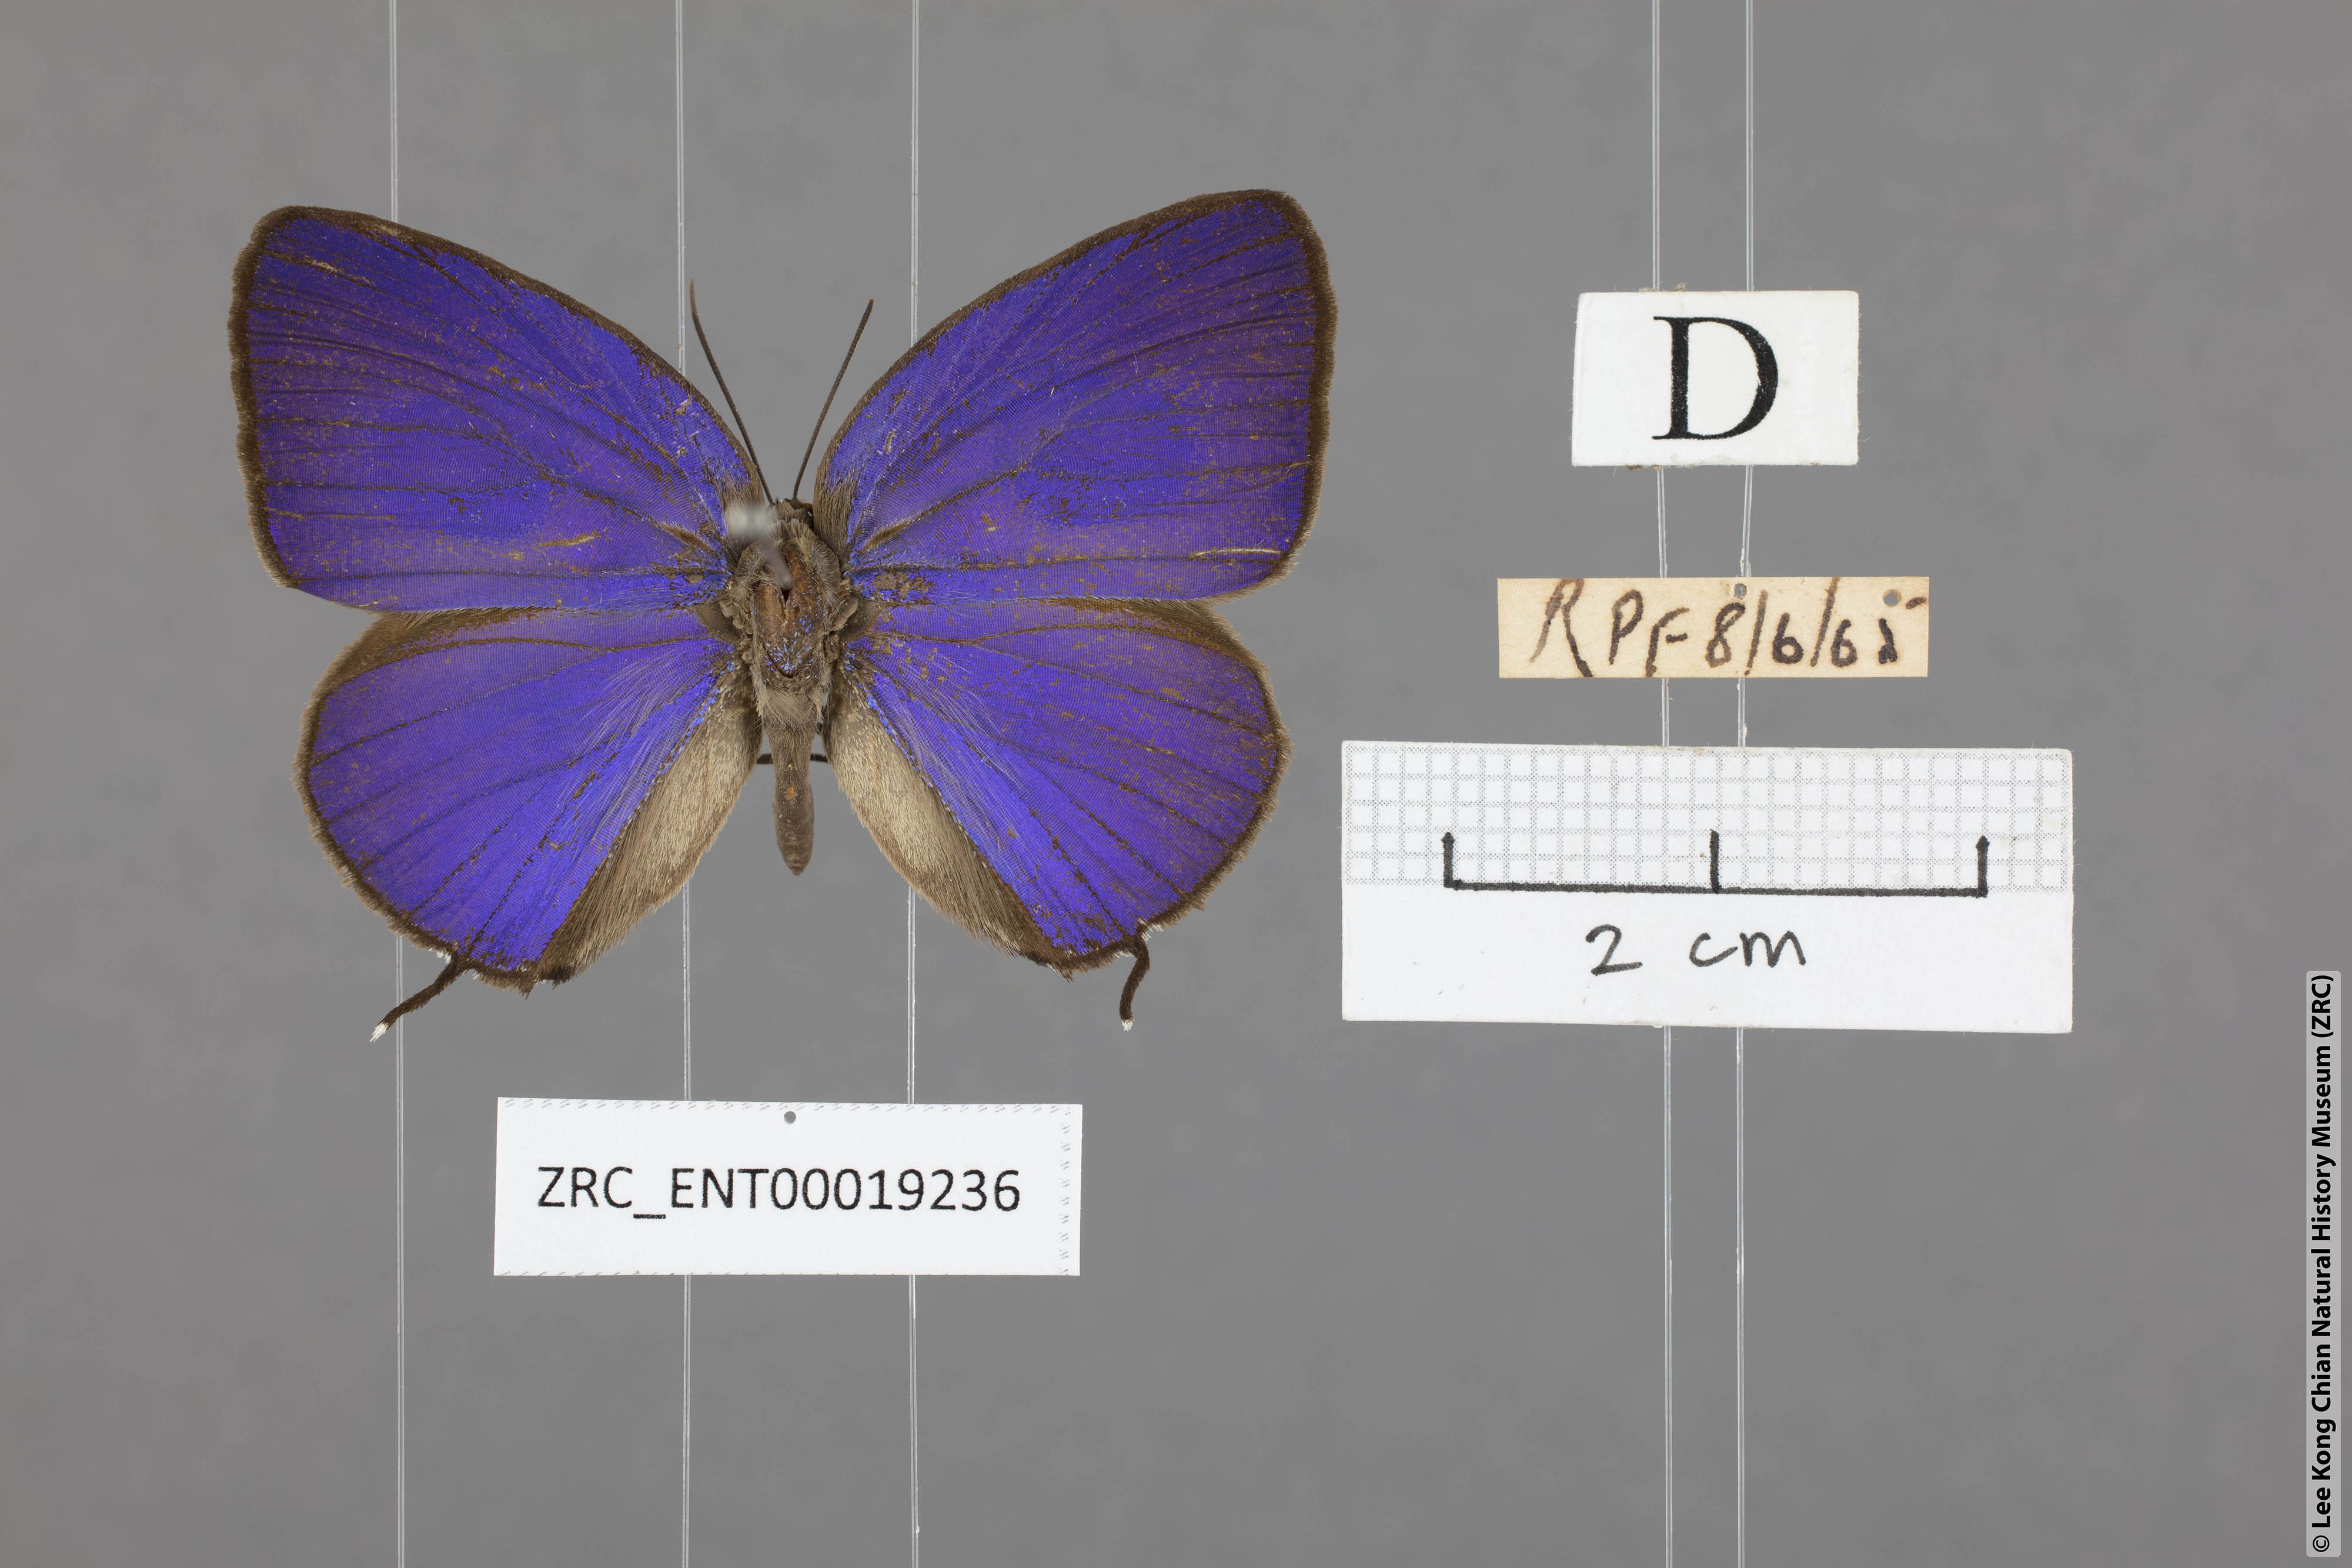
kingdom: Animalia
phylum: Arthropoda
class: Insecta
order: Lepidoptera
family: Lycaenidae
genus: Arhopala
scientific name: Arhopala atosia
